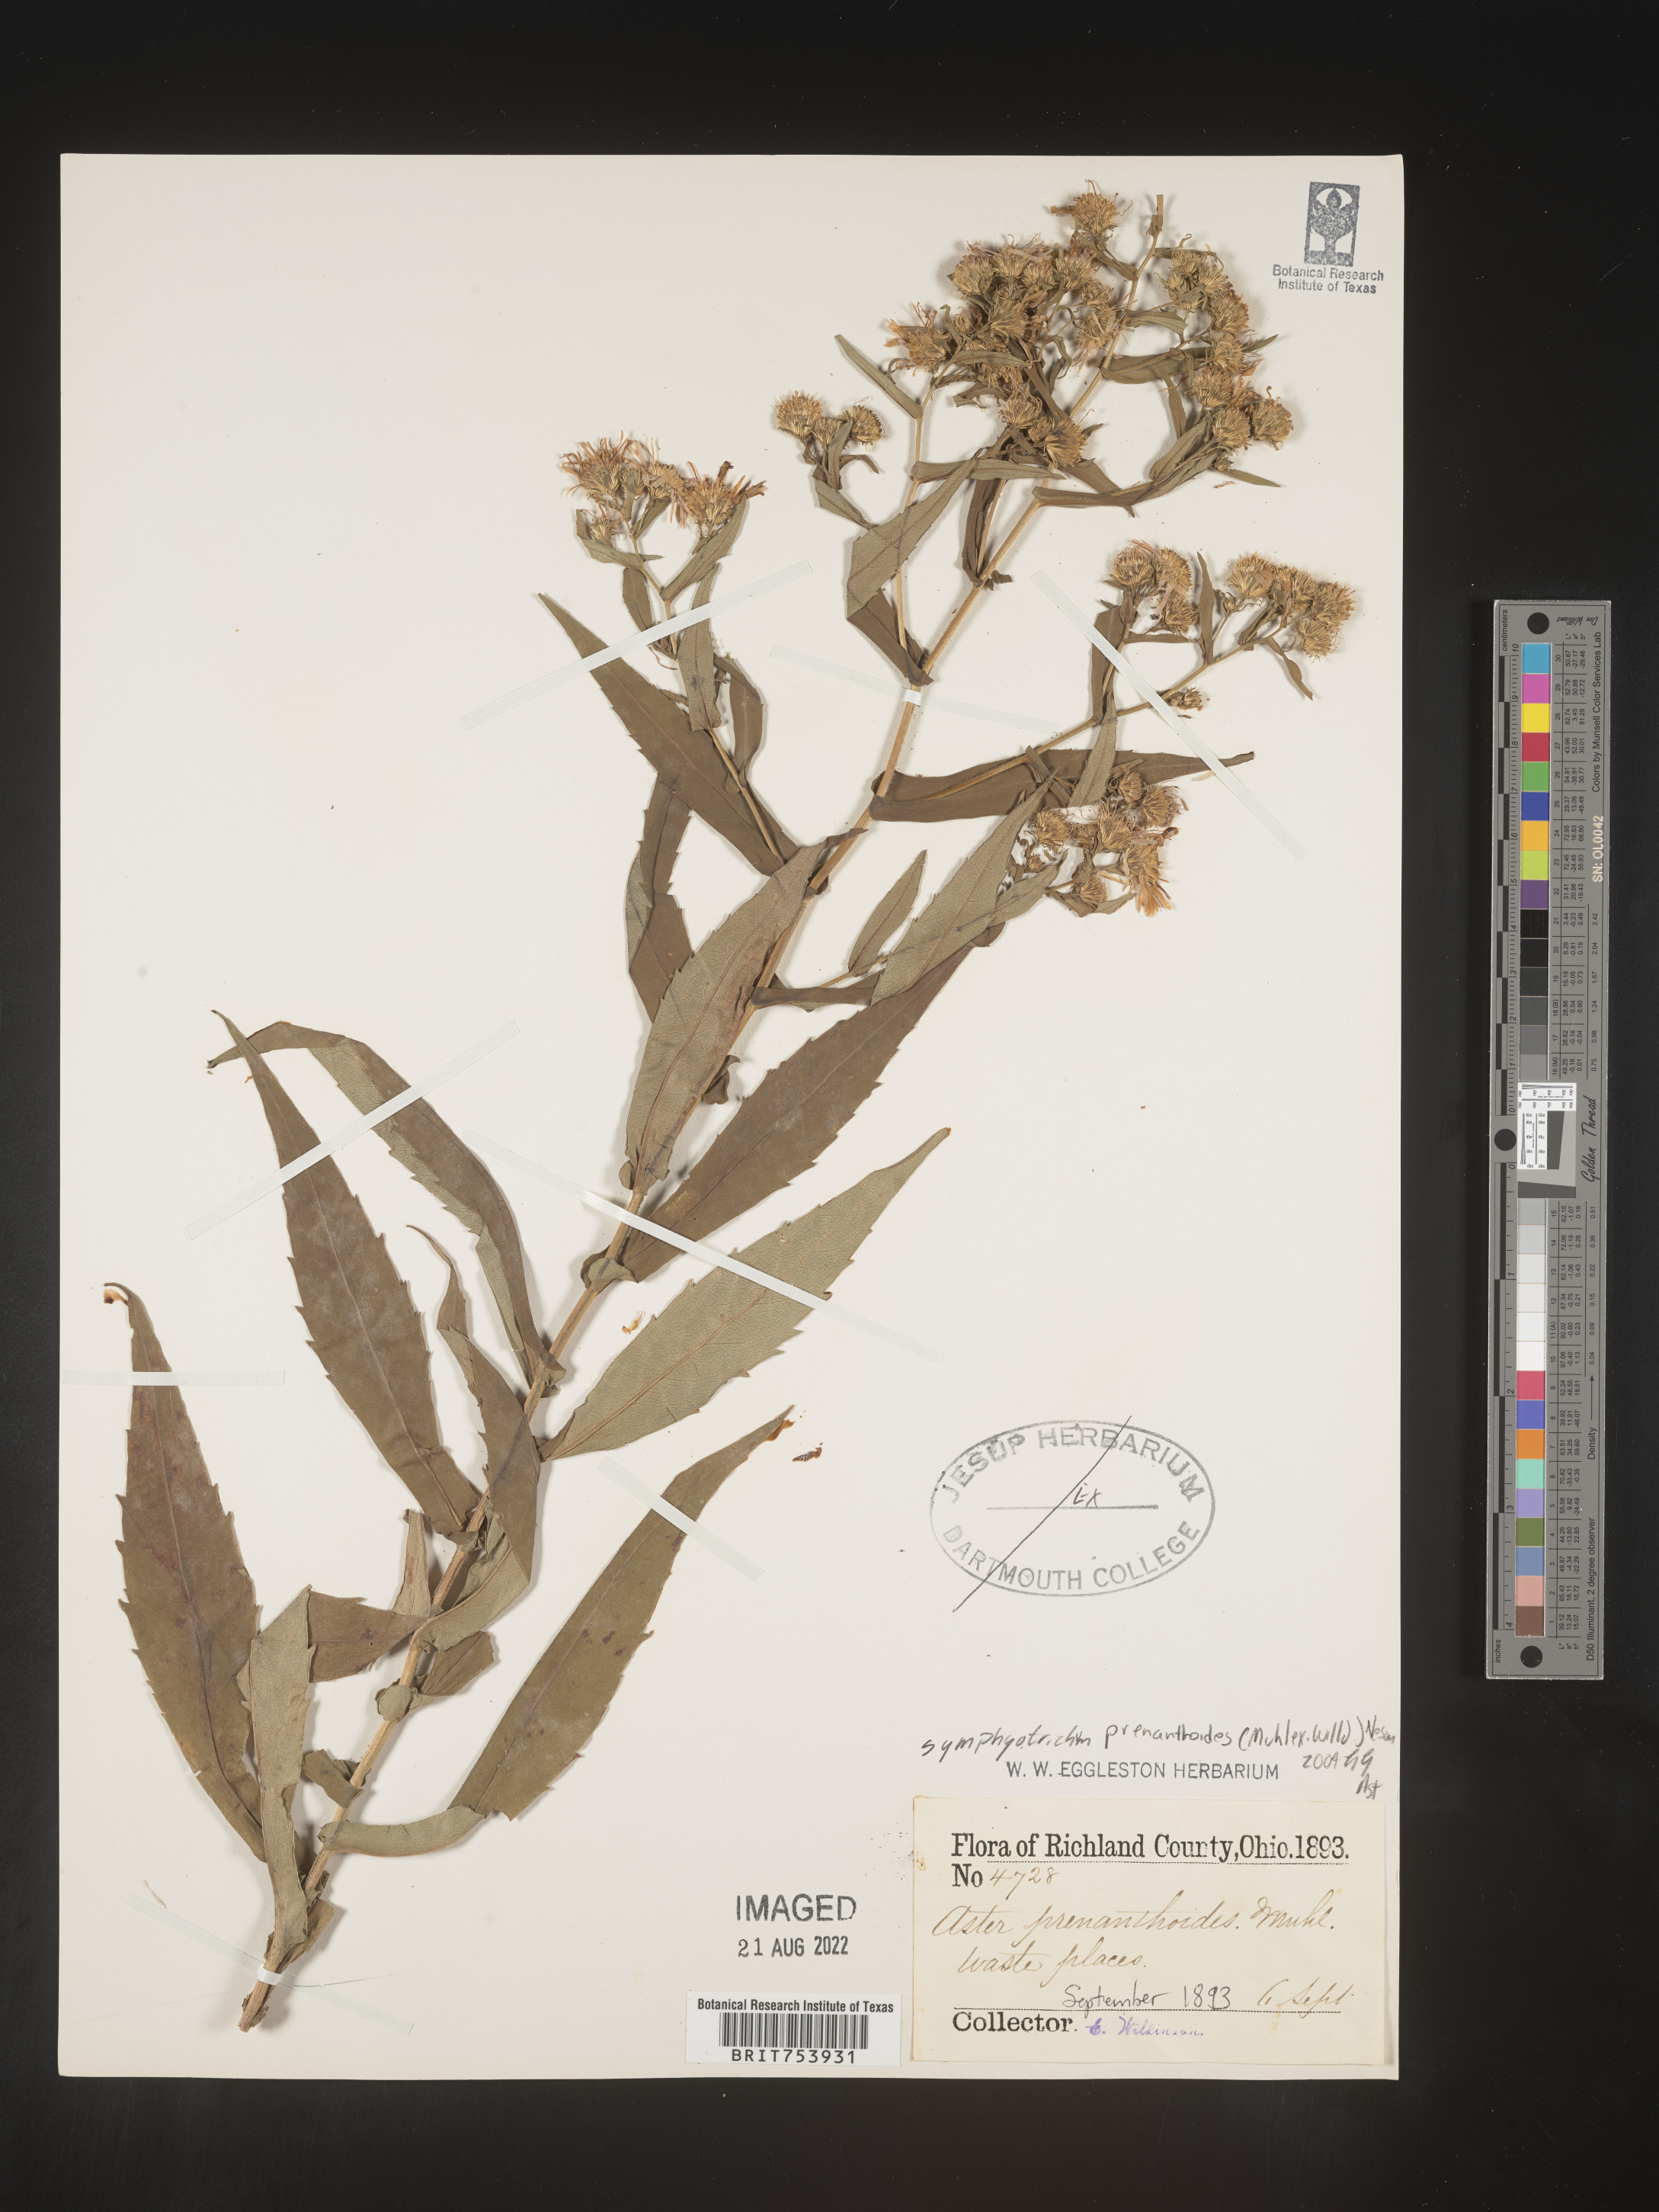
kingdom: Plantae
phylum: Tracheophyta
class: Magnoliopsida
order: Asterales
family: Asteraceae
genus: Symphyotrichum
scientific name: Symphyotrichum prenanthoides
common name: Crooked-stem aster
